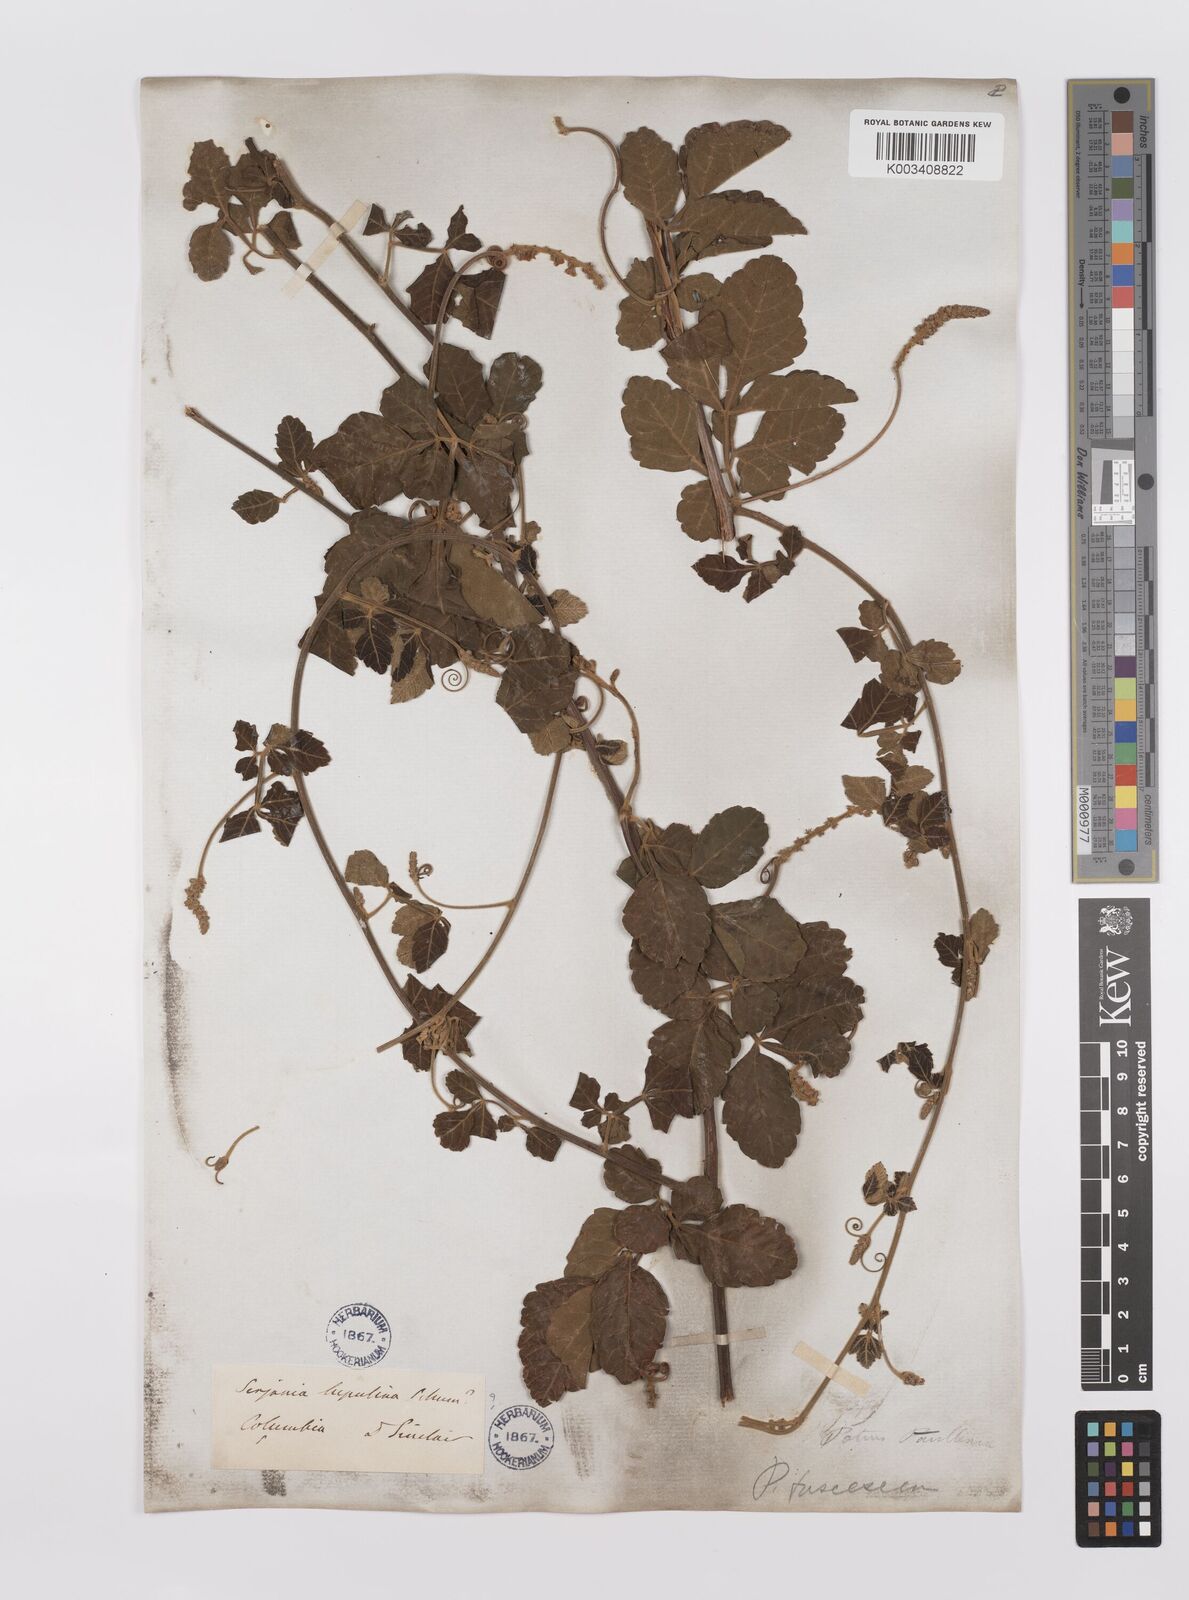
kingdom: Plantae
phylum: Tracheophyta
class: Magnoliopsida
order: Sapindales
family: Sapindaceae
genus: Paullinia
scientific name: Paullinia fuscescens
